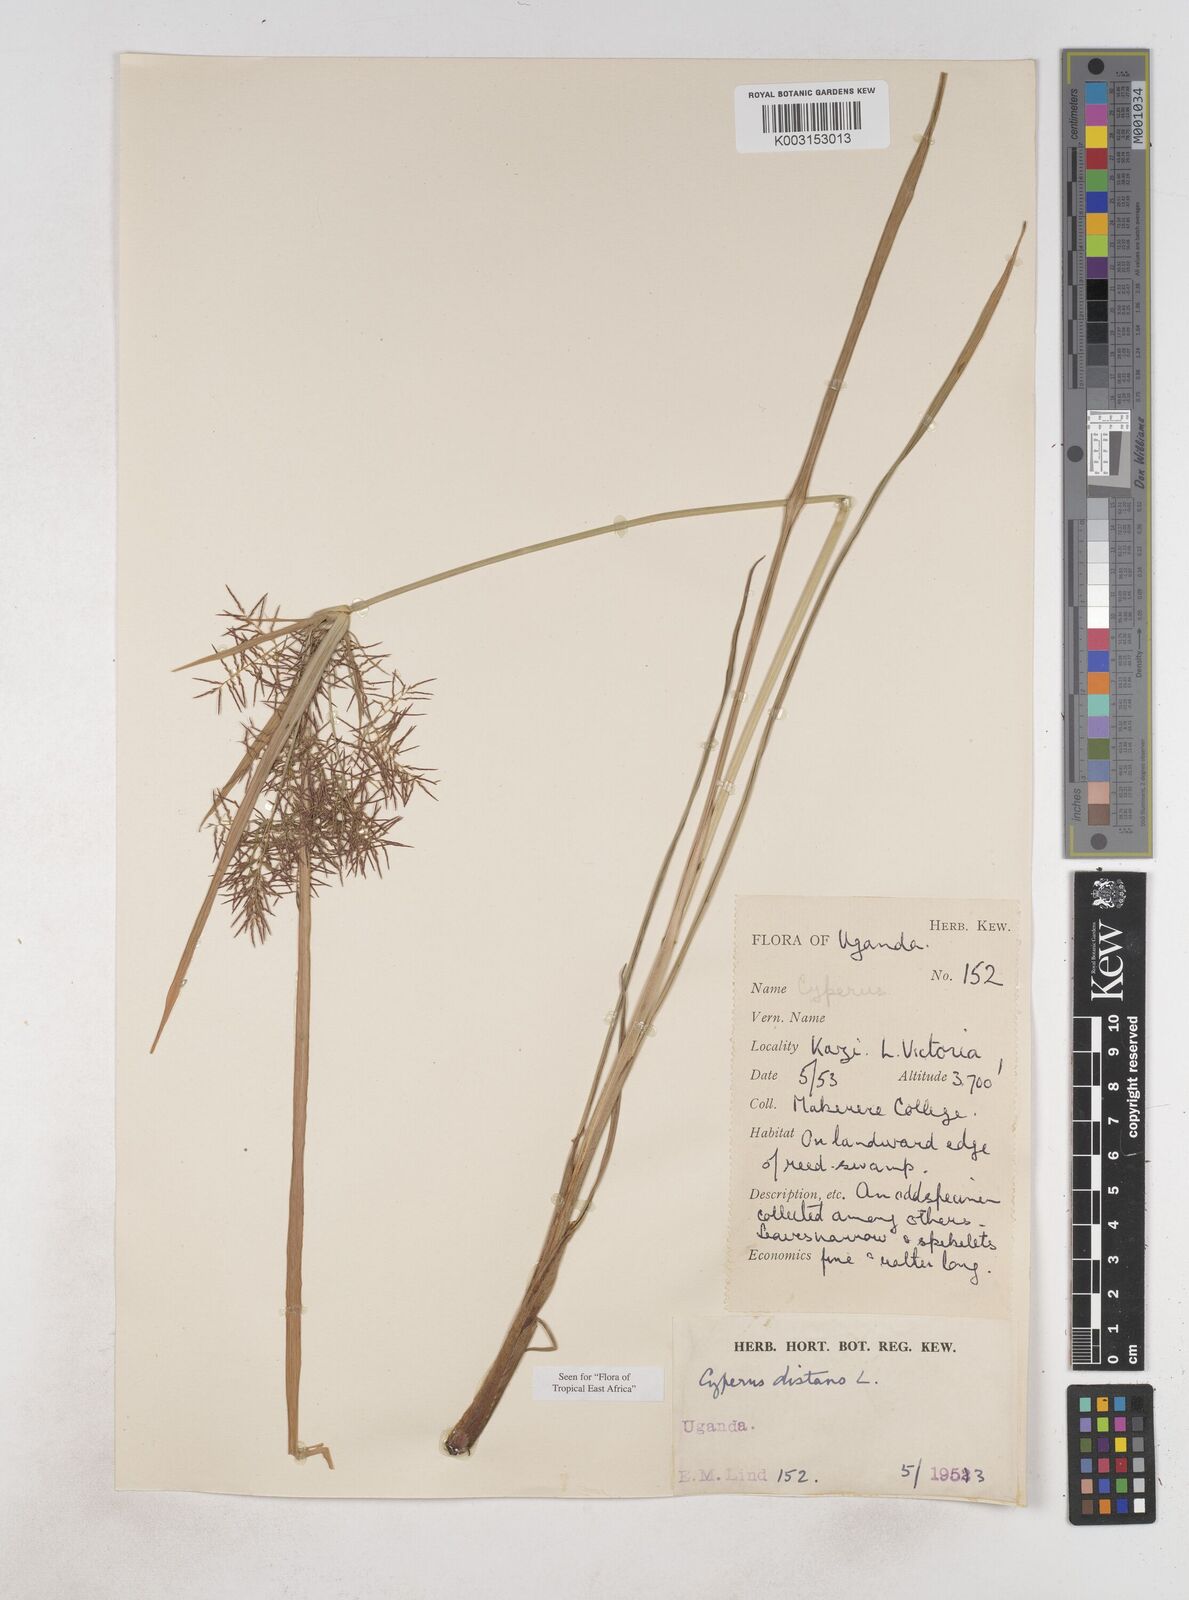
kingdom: Plantae
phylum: Tracheophyta
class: Liliopsida
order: Poales
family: Cyperaceae
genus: Cyperus
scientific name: Cyperus distans
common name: Slender cyperus
